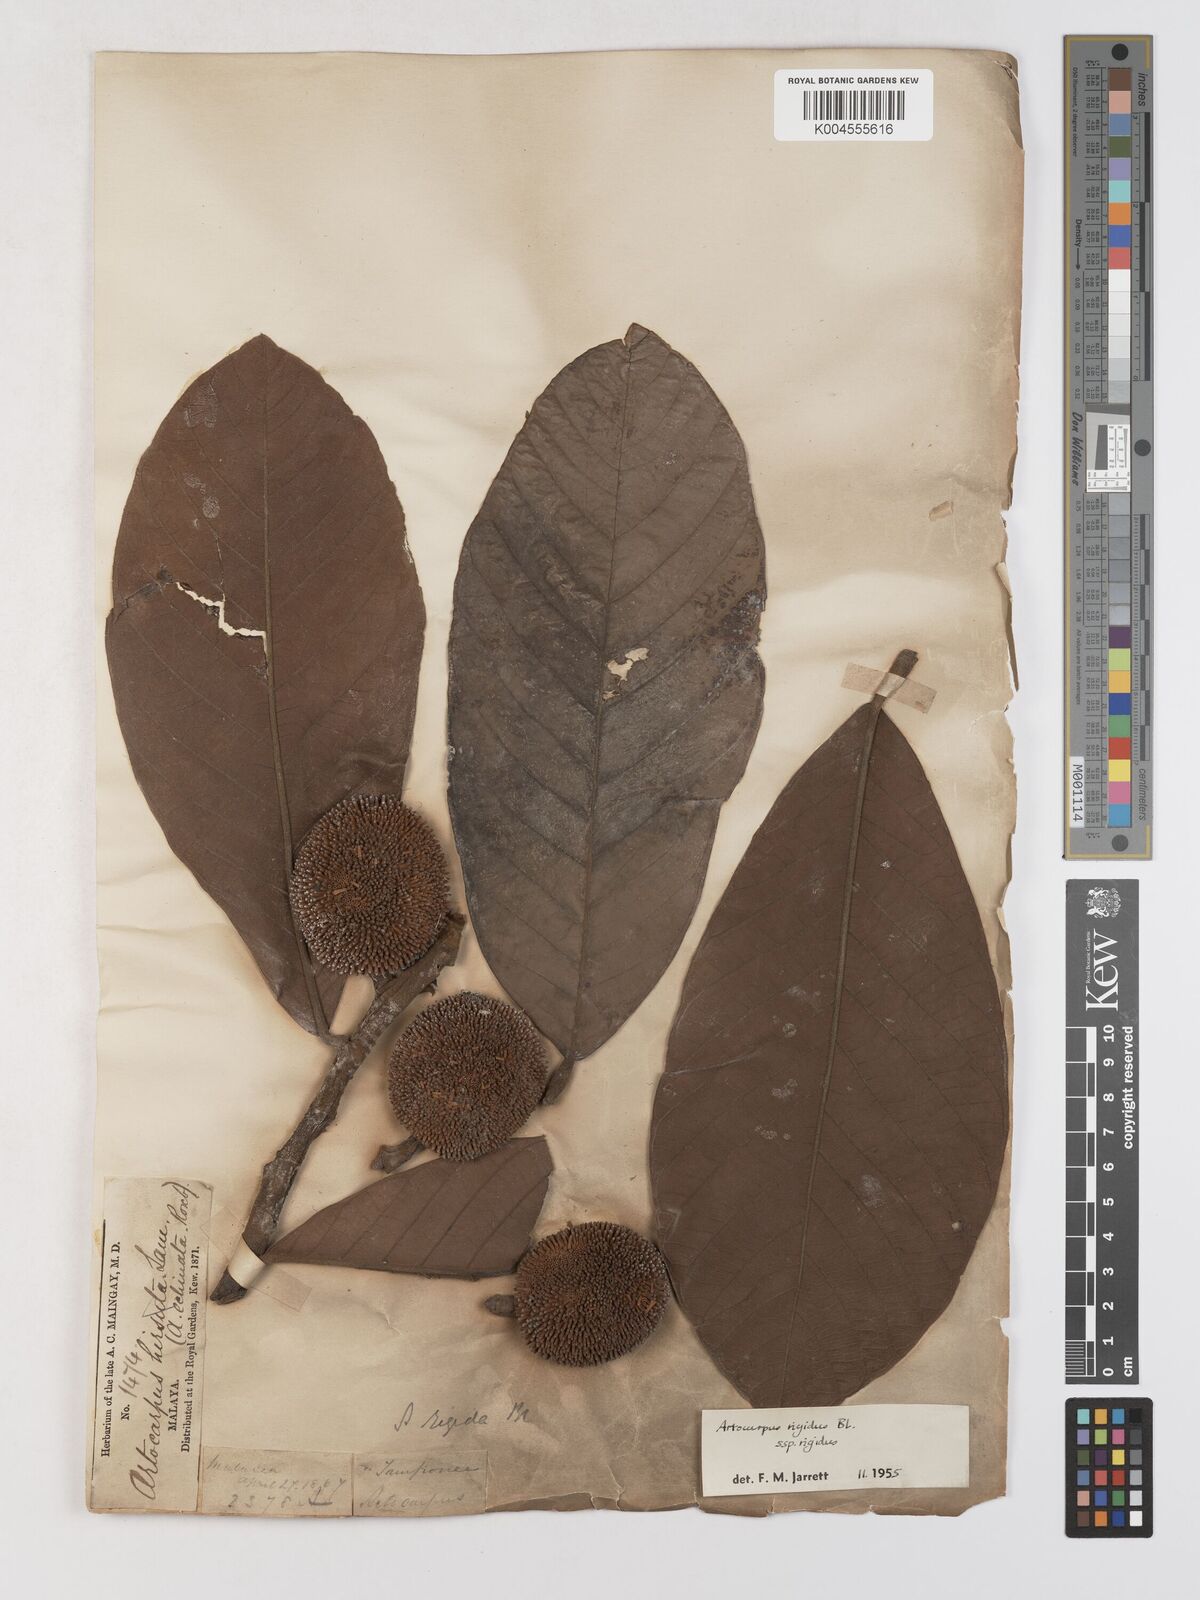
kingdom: Plantae
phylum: Tracheophyta
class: Magnoliopsida
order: Rosales
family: Moraceae
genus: Artocarpus
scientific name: Artocarpus
